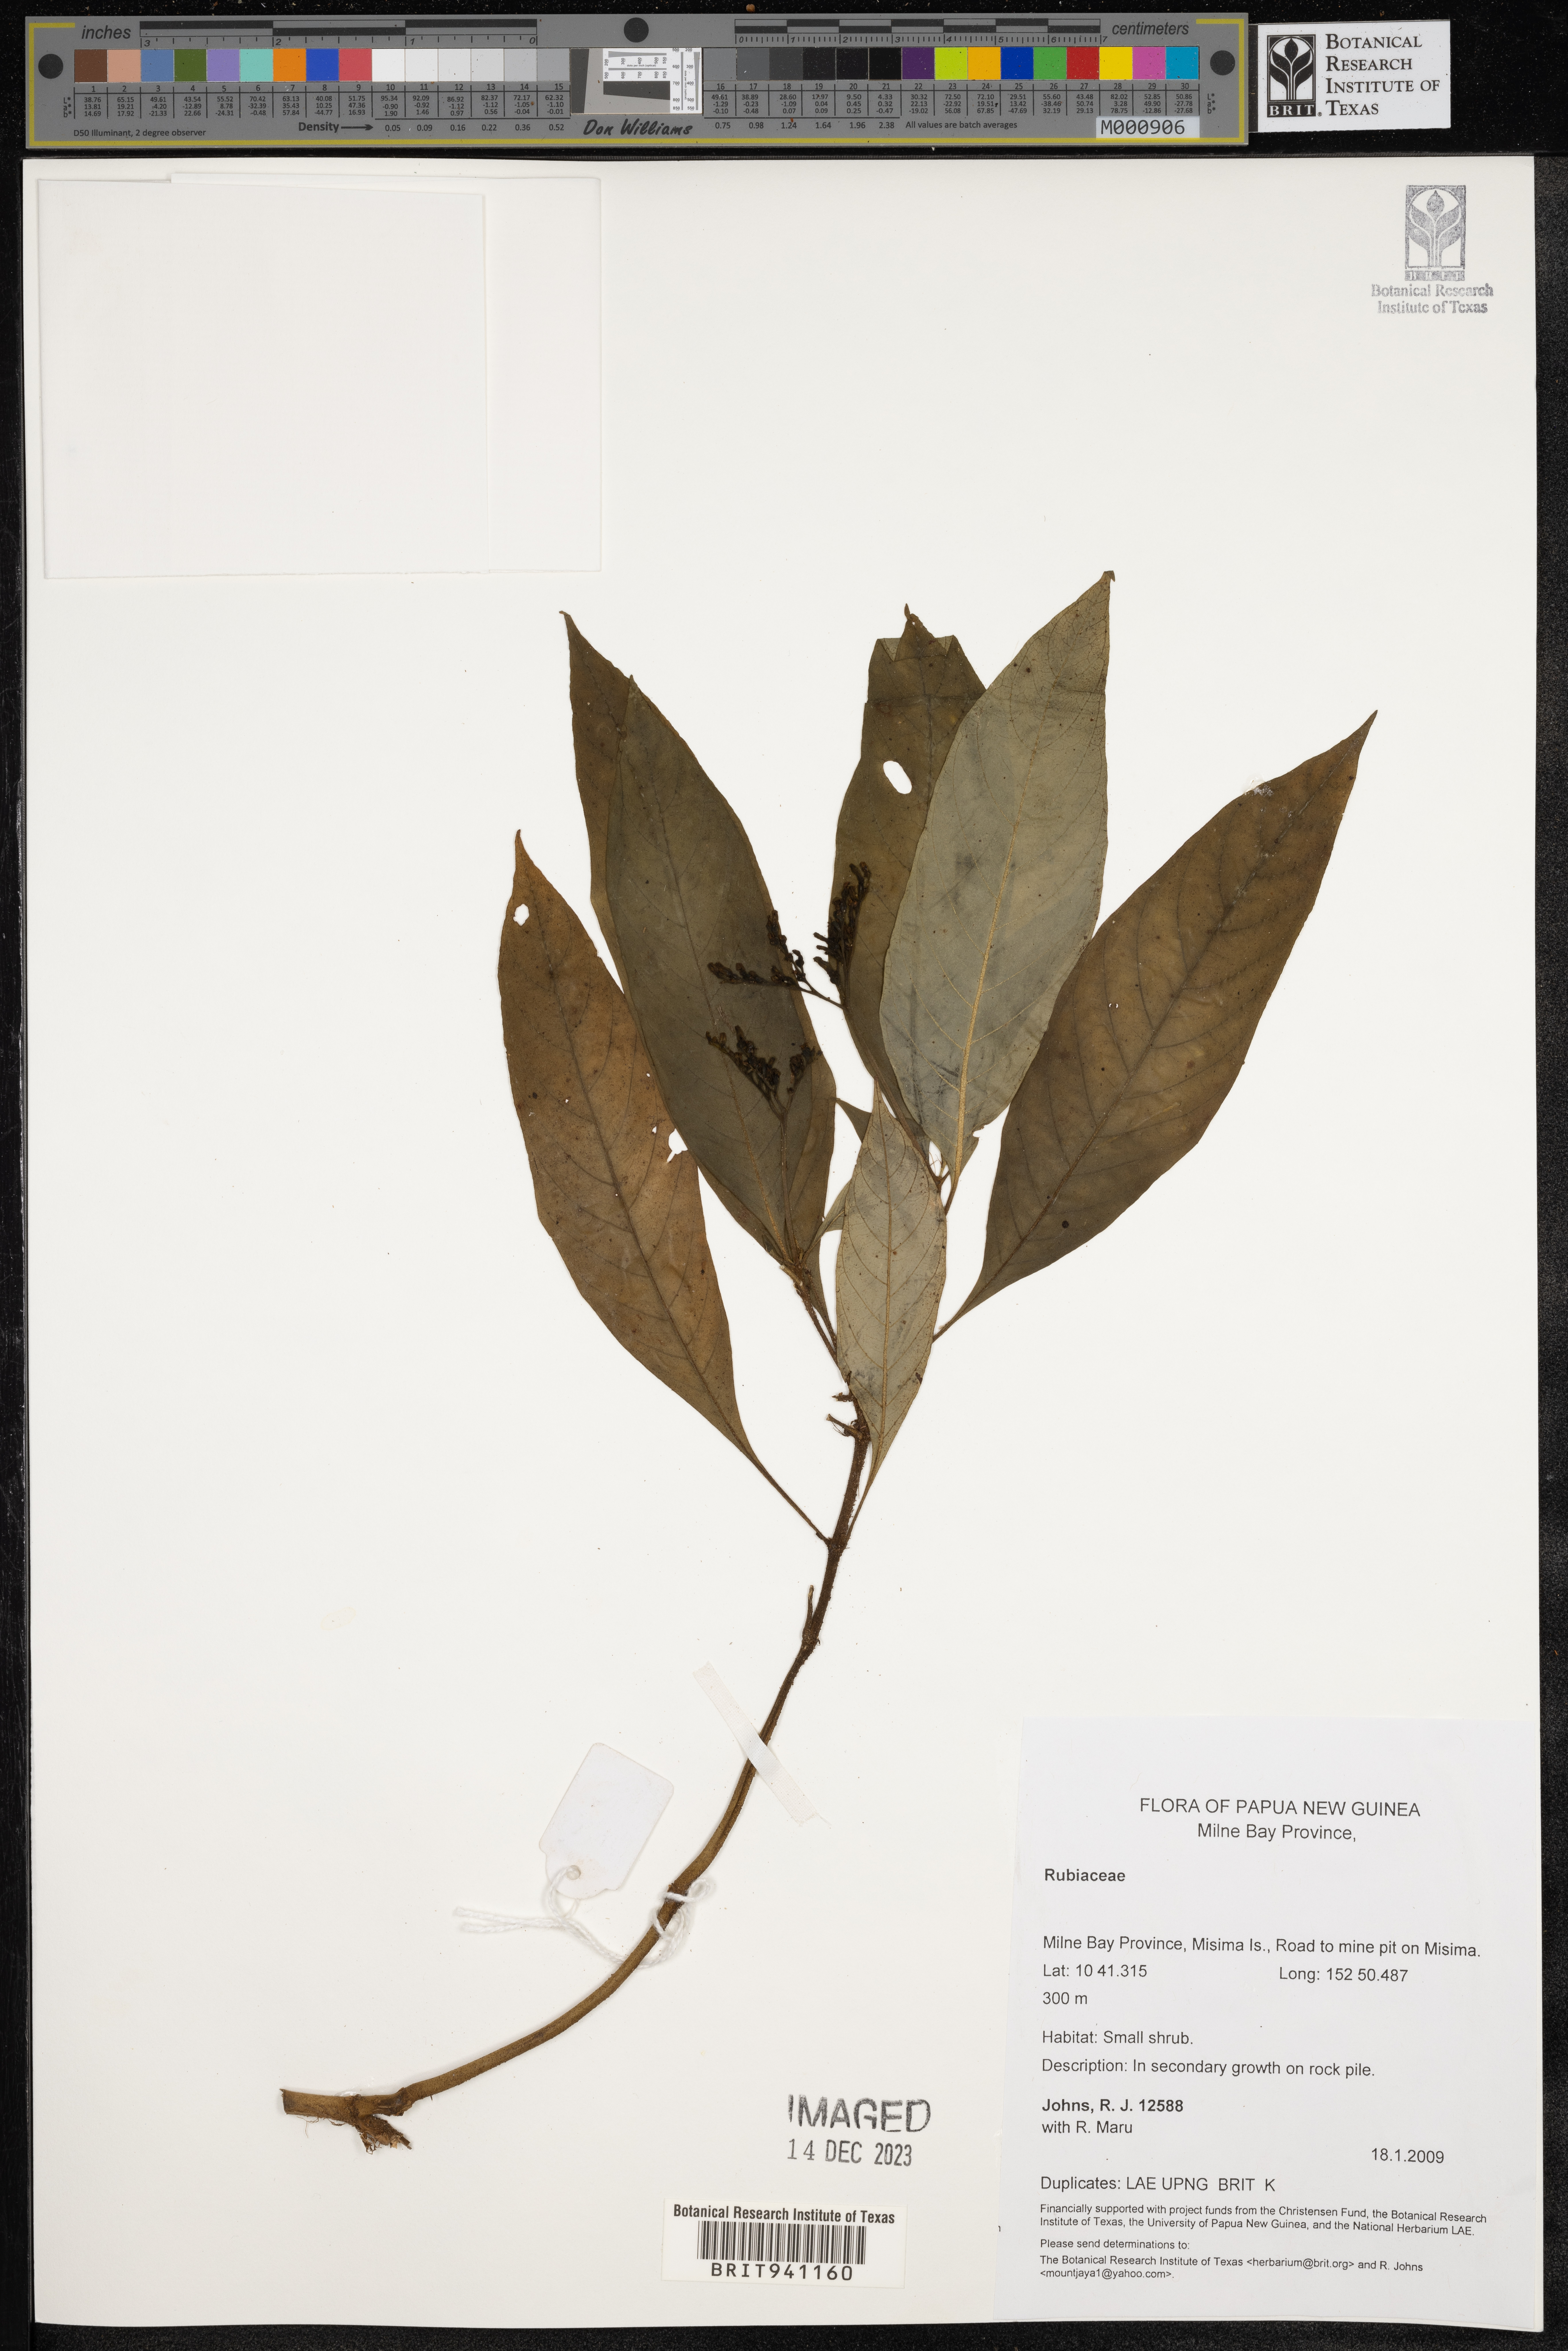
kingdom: Plantae
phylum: Tracheophyta
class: Magnoliopsida
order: Gentianales
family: Rubiaceae
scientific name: Rubiaceae
